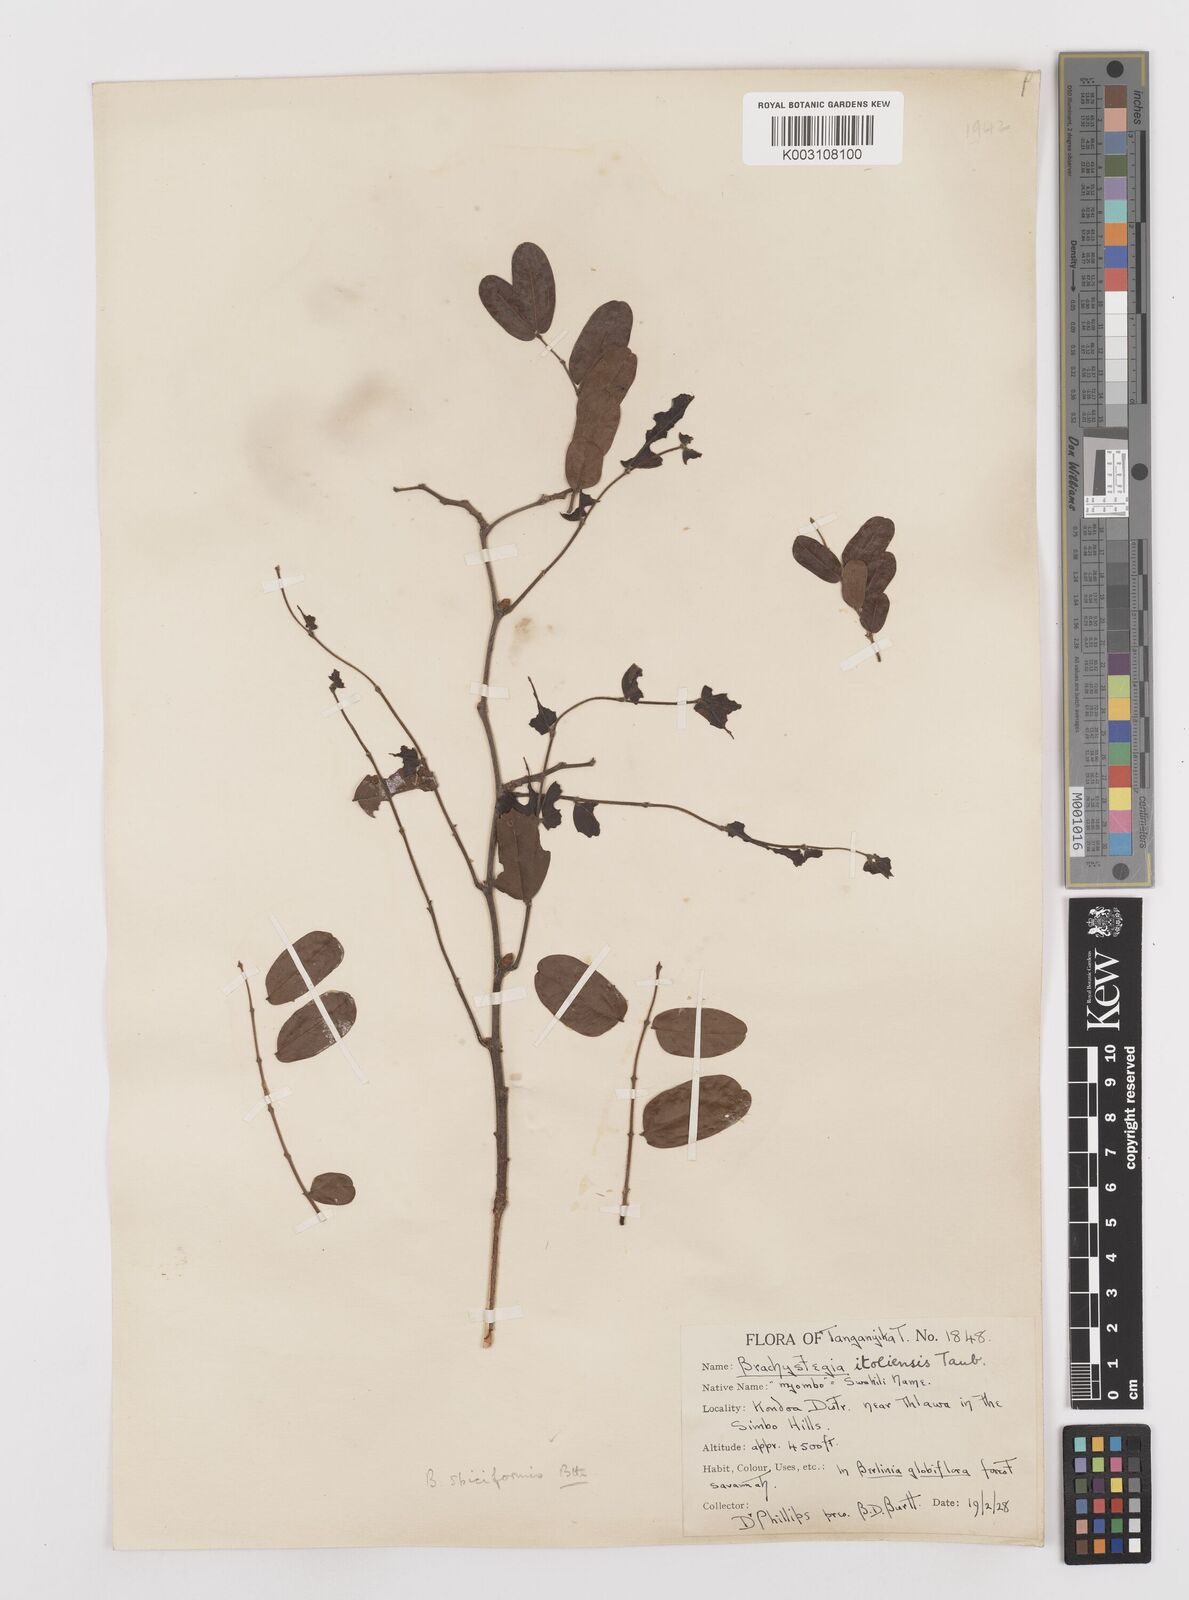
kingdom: Plantae
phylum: Tracheophyta
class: Magnoliopsida
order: Fabales
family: Fabaceae
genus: Brachystegia
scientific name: Brachystegia spiciformis
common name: Zebrawood
